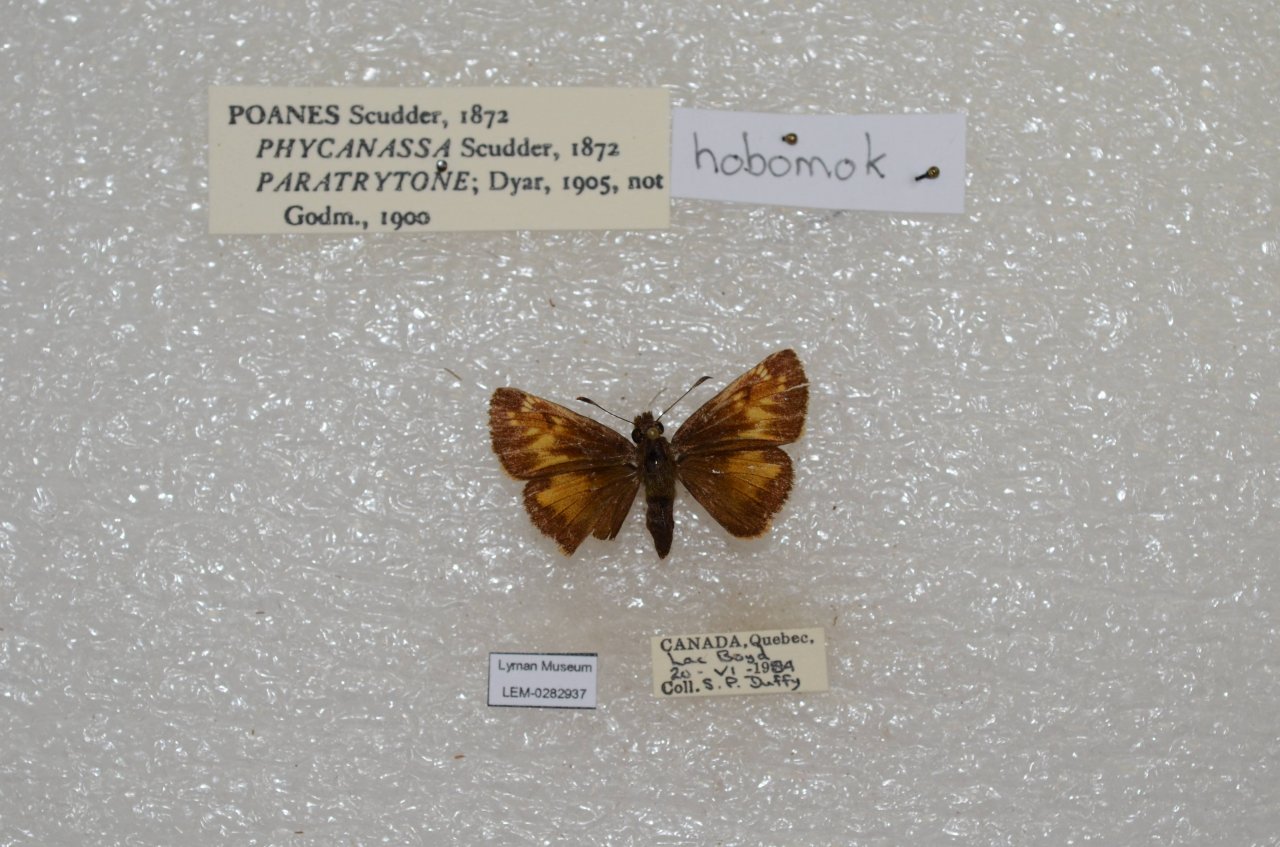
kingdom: Animalia
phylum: Arthropoda
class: Insecta
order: Lepidoptera
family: Hesperiidae
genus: Lon
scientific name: Lon hobomok
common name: Hobomok Skipper
